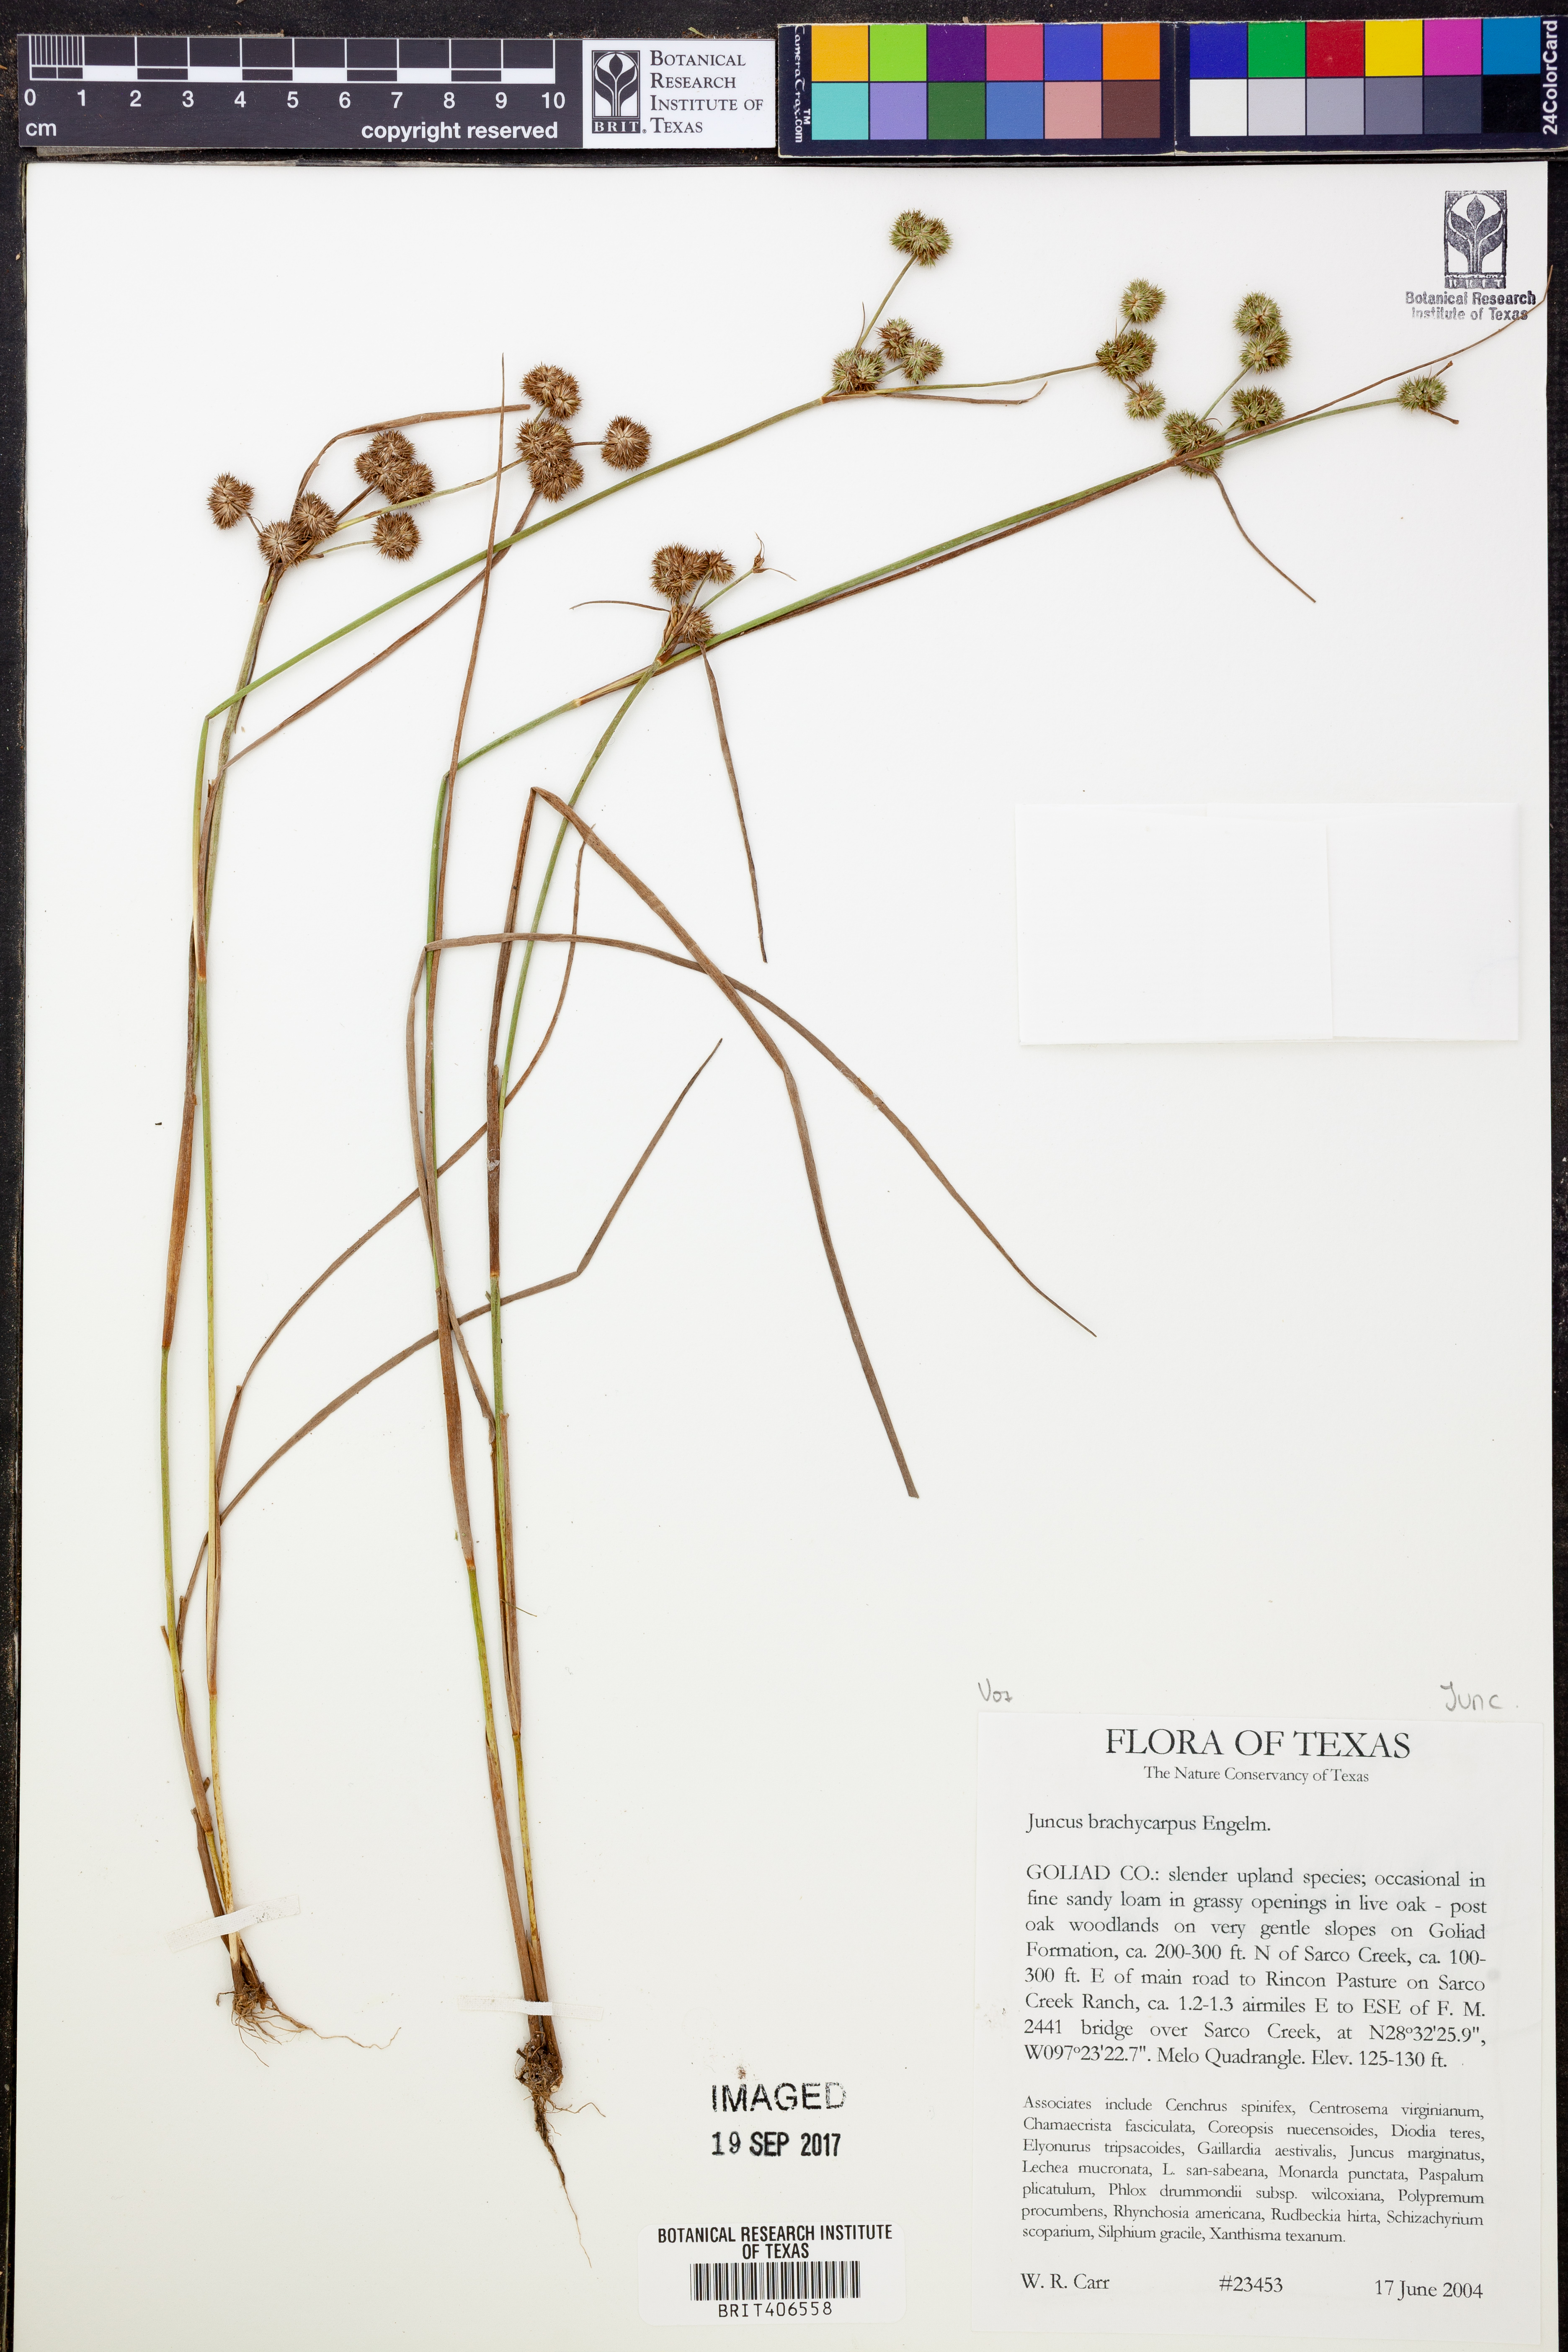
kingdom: Plantae
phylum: Tracheophyta
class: Liliopsida
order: Poales
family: Juncaceae
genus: Juncus
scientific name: Juncus brachycarpus
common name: Shore rush
